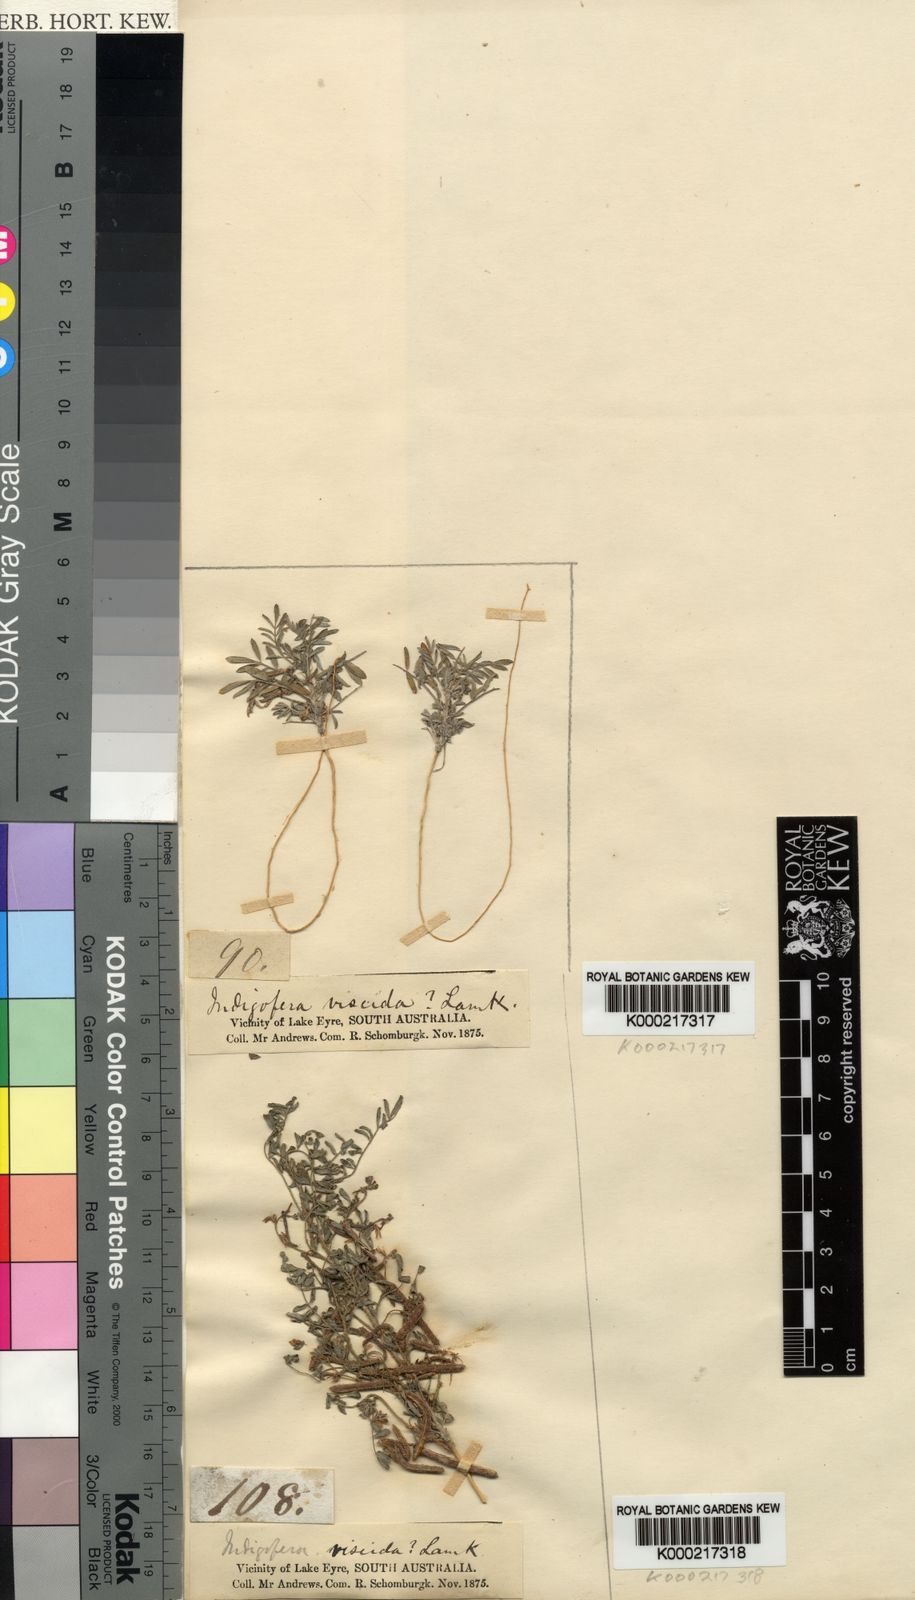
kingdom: Plantae
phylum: Tracheophyta
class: Magnoliopsida
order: Fabales
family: Fabaceae
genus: Indigofera
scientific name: Indigofera
